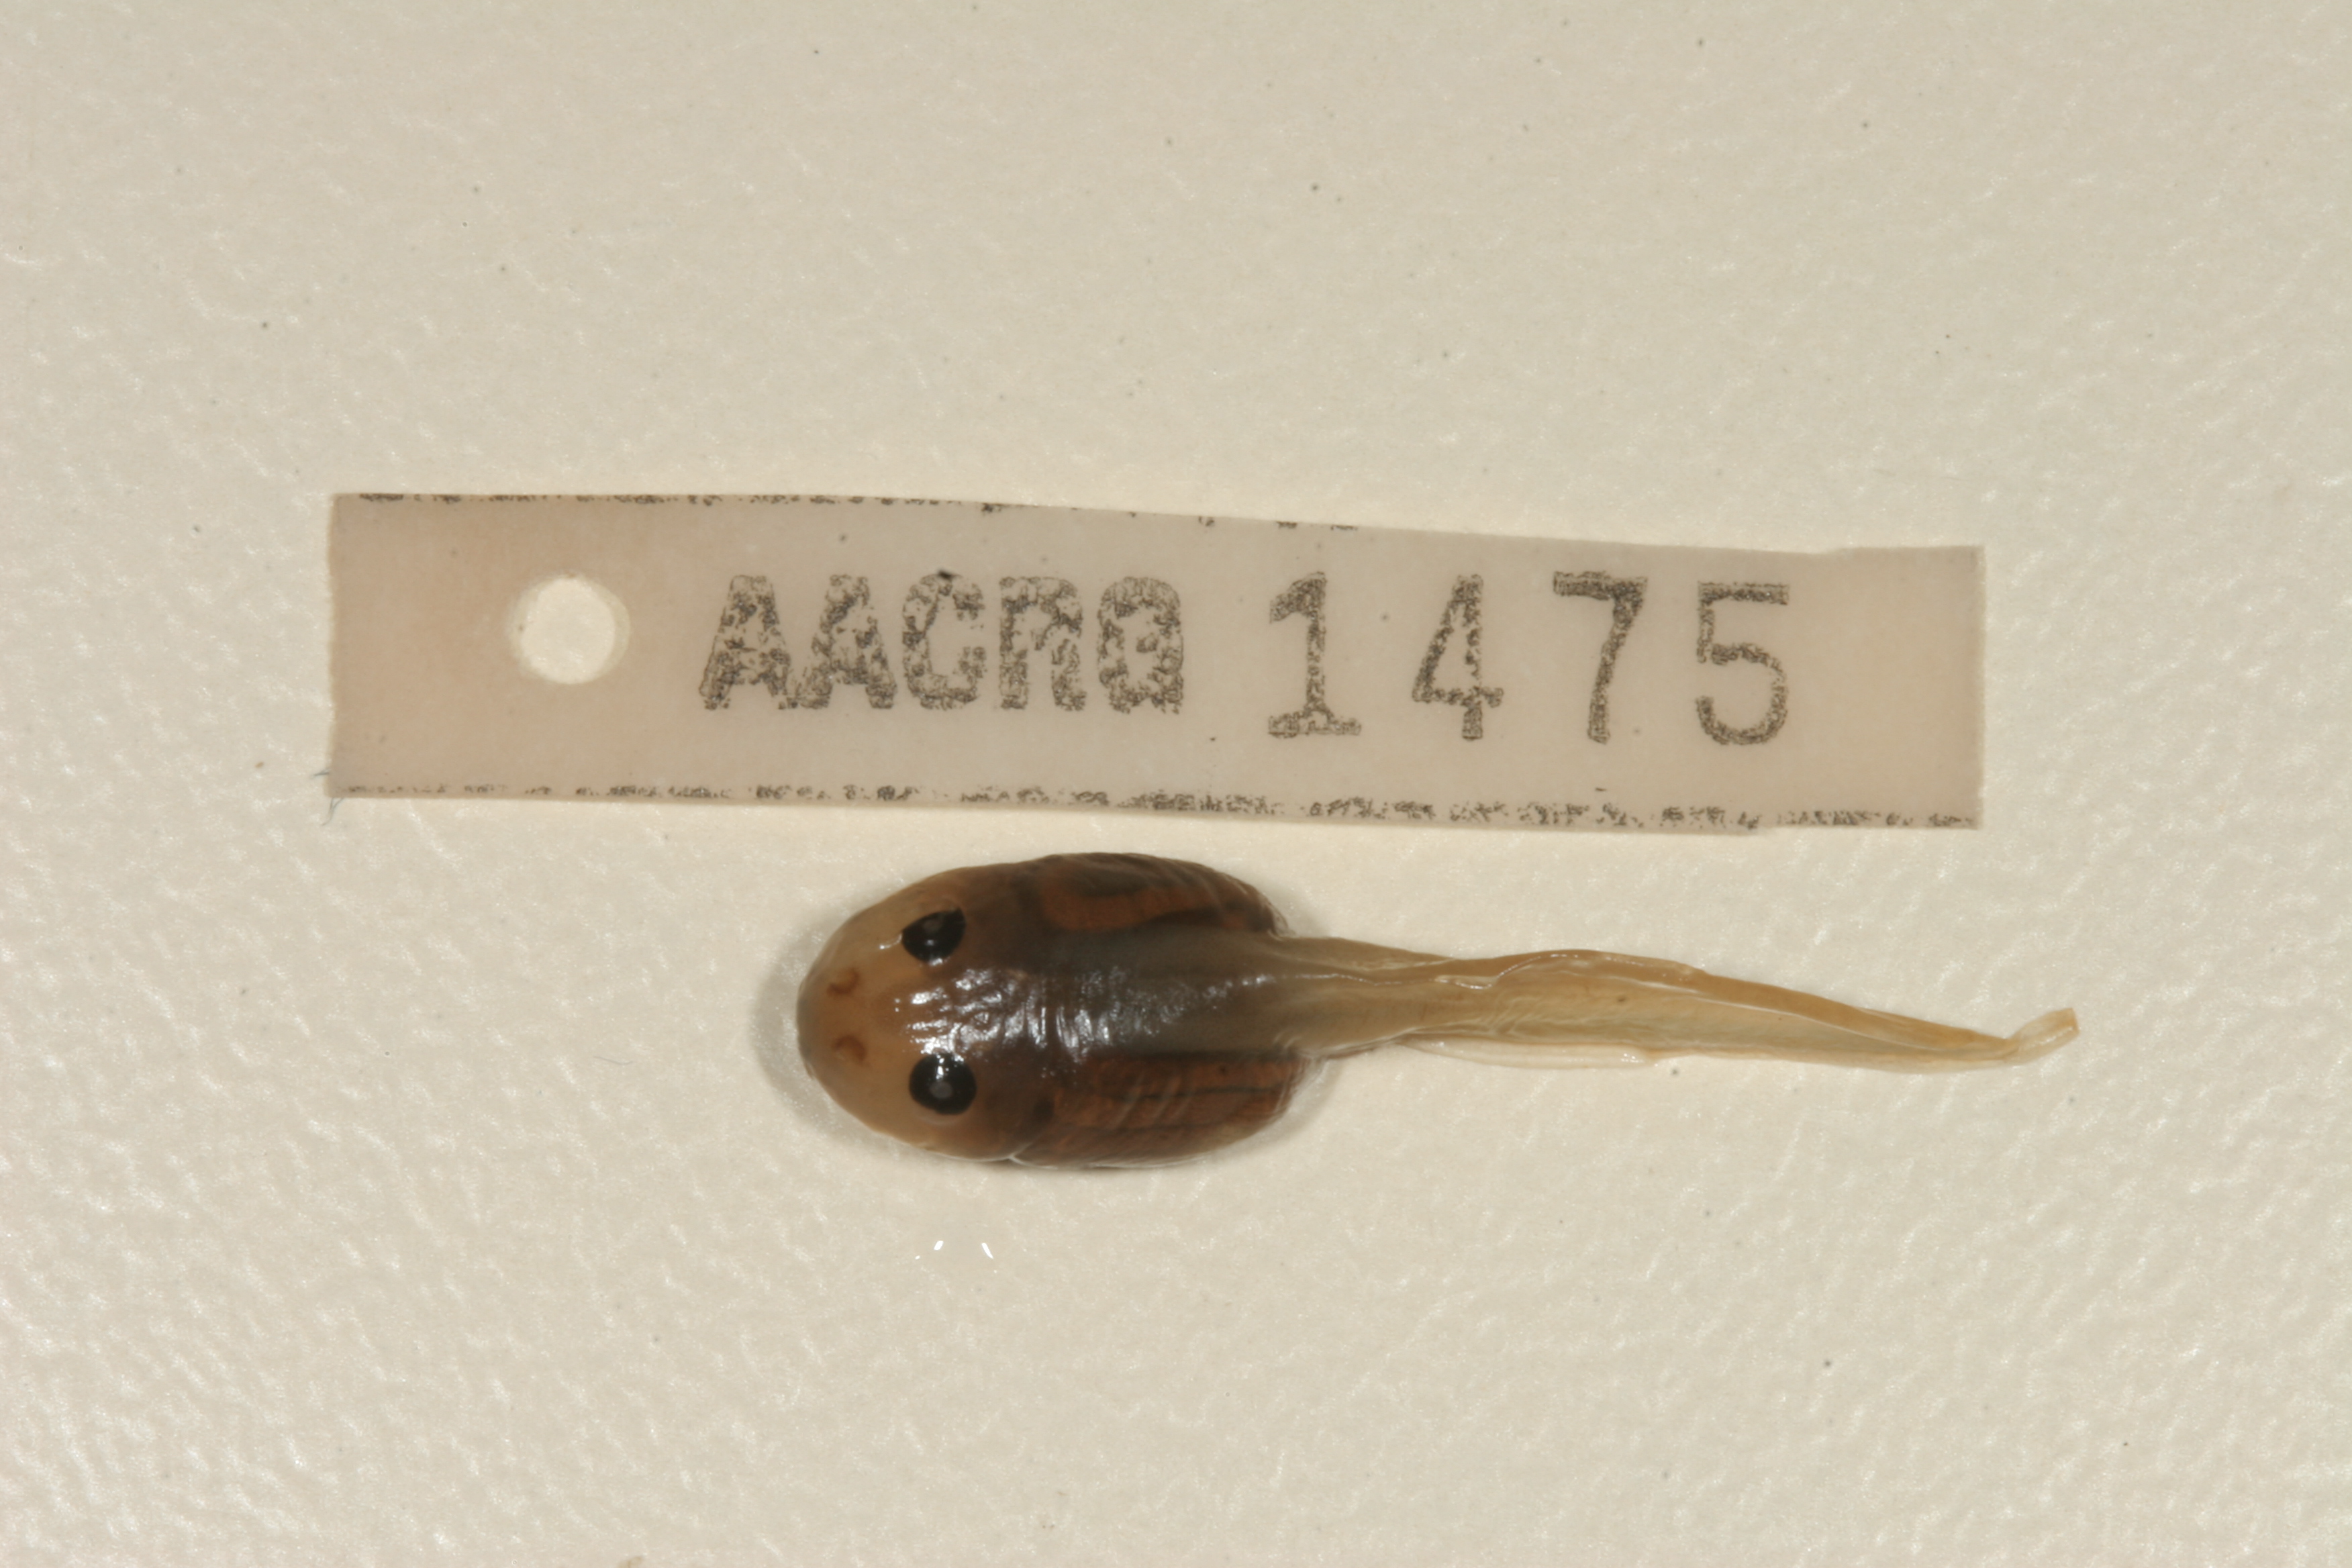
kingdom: Animalia
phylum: Chordata
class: Amphibia
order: Anura
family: Ptychadenidae
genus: Ptychadena
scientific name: Ptychadena anchietae
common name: Anchieta's ridged frog
